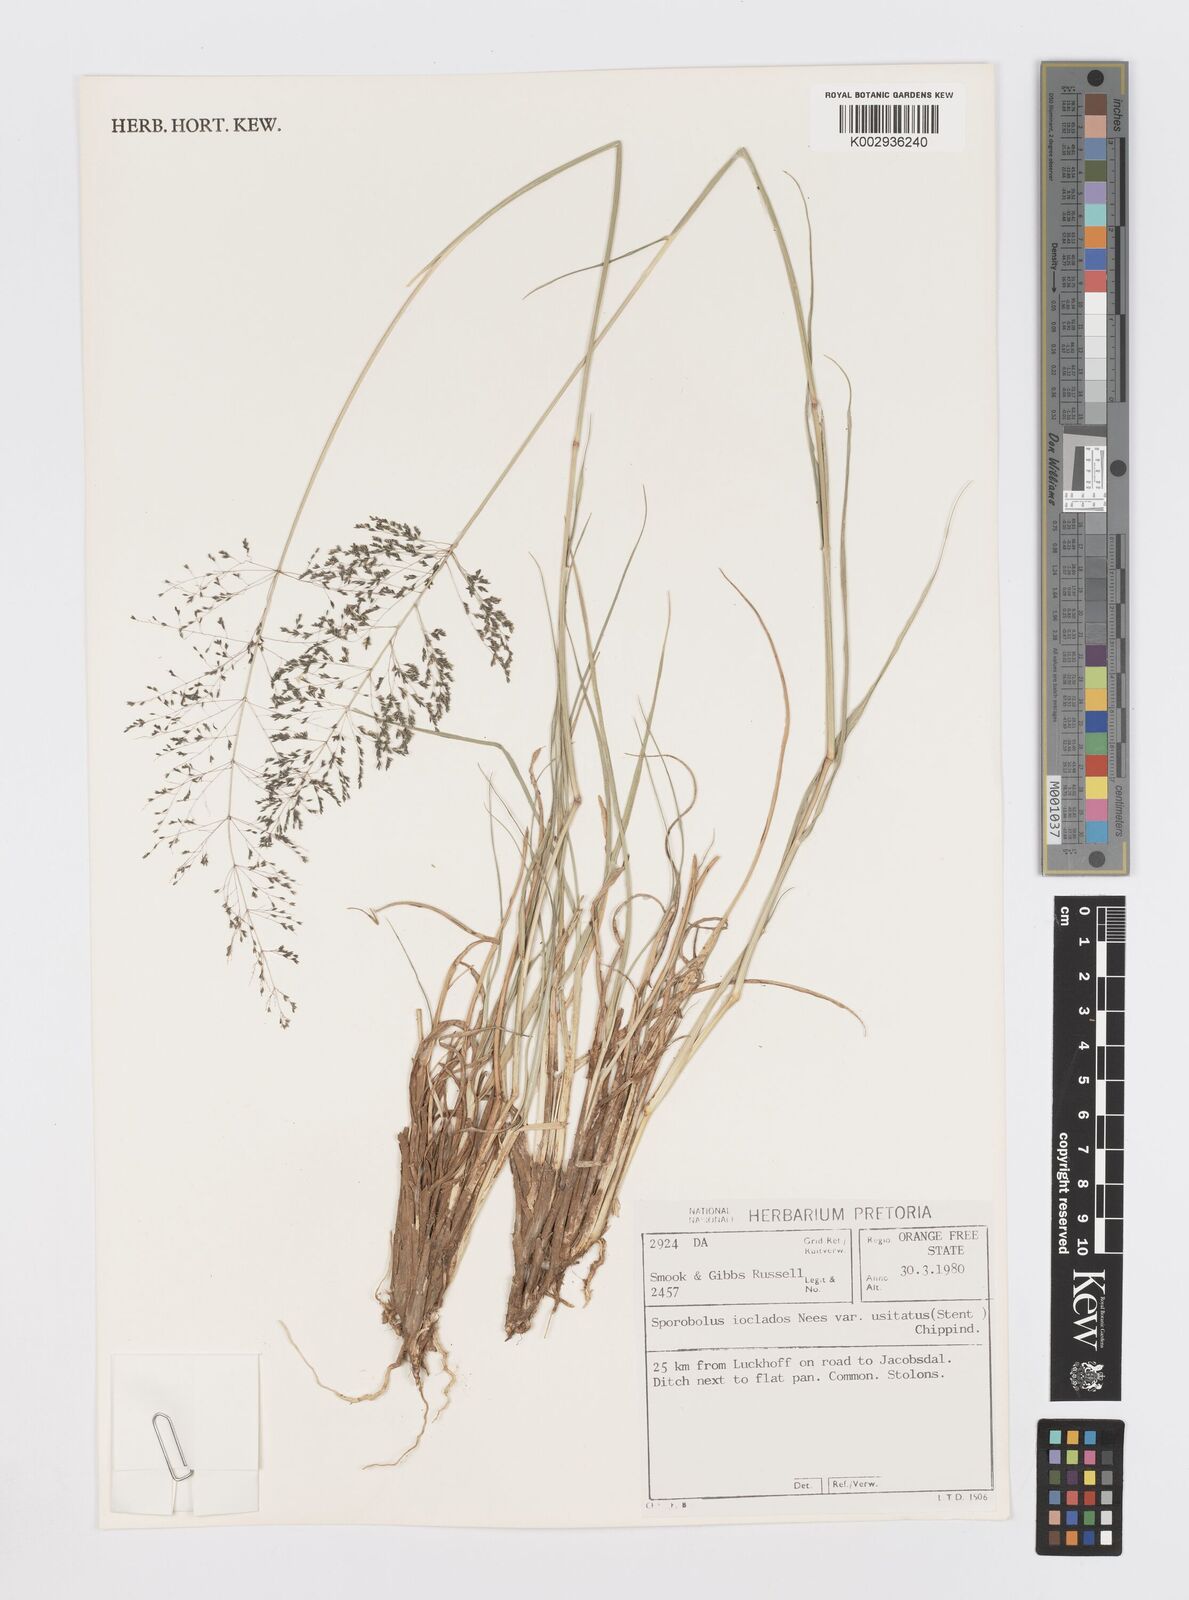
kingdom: Plantae
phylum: Tracheophyta
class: Liliopsida
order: Poales
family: Poaceae
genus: Sporobolus
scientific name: Sporobolus ioclados
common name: Pan dropseed
